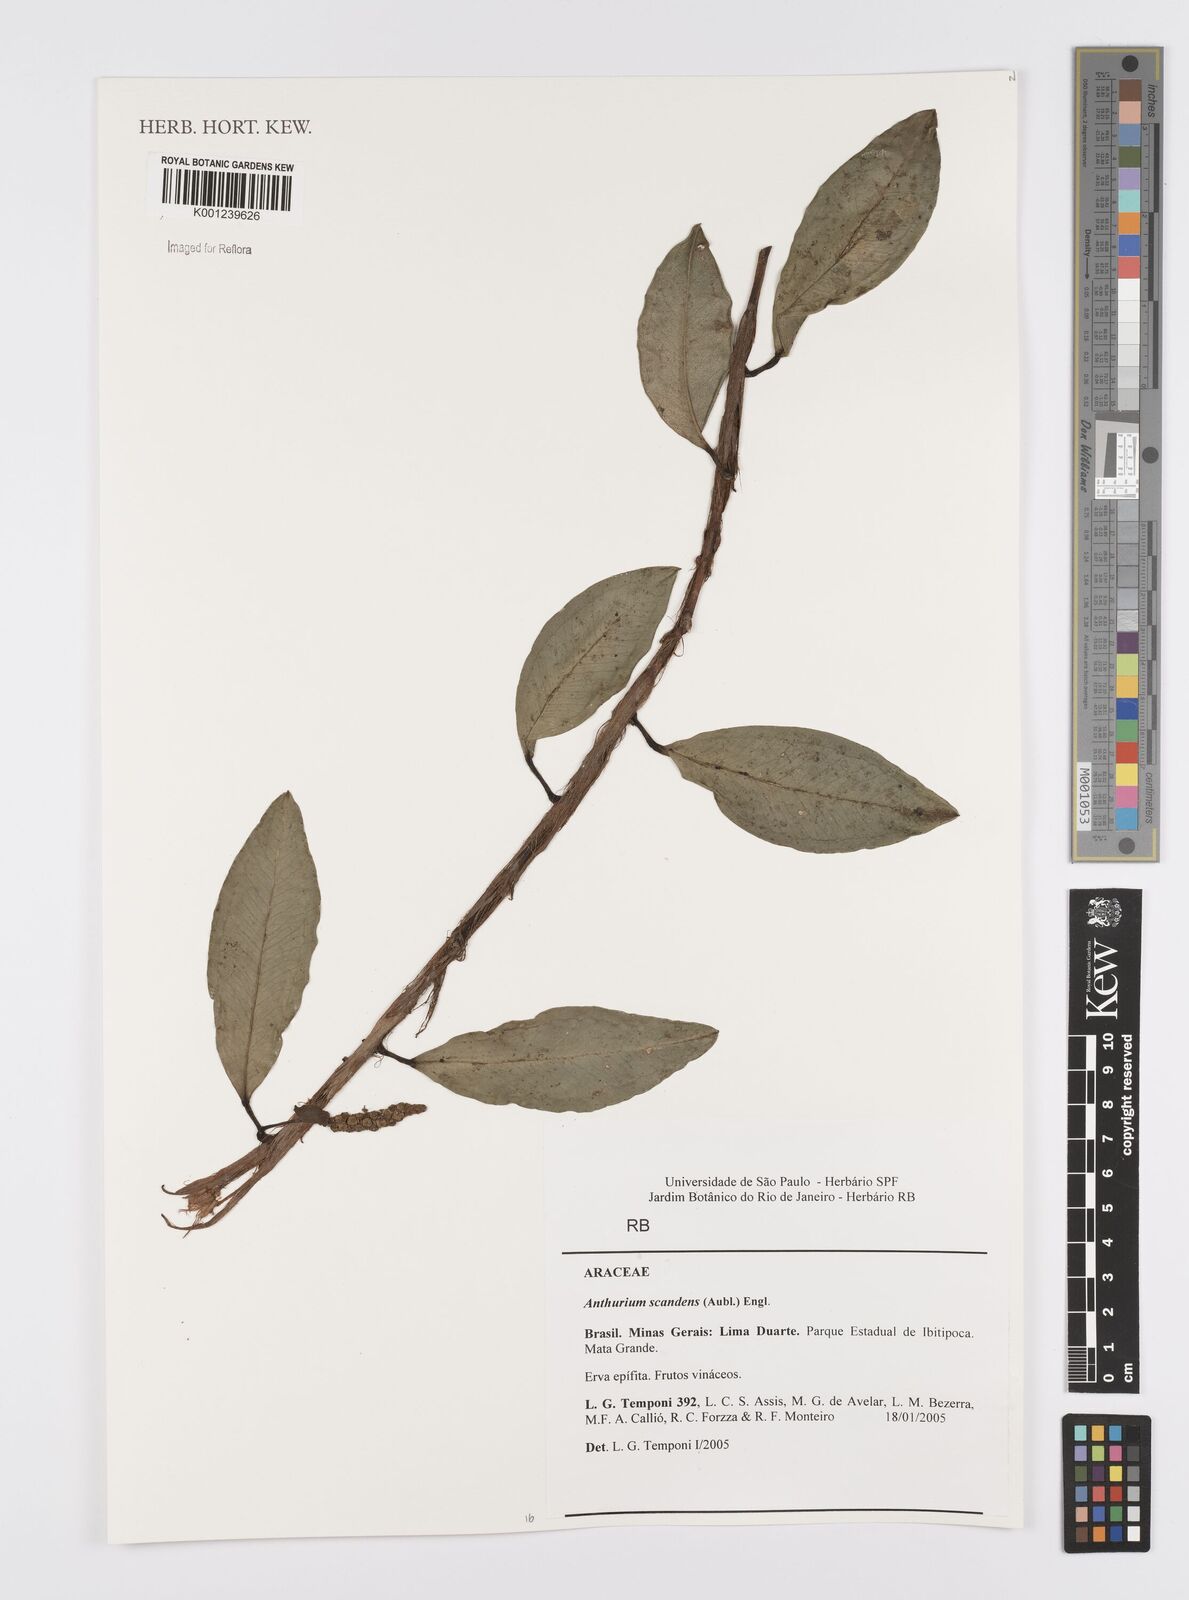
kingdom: Plantae
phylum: Tracheophyta
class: Liliopsida
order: Alismatales
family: Araceae
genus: Anthurium
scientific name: Anthurium scandens
